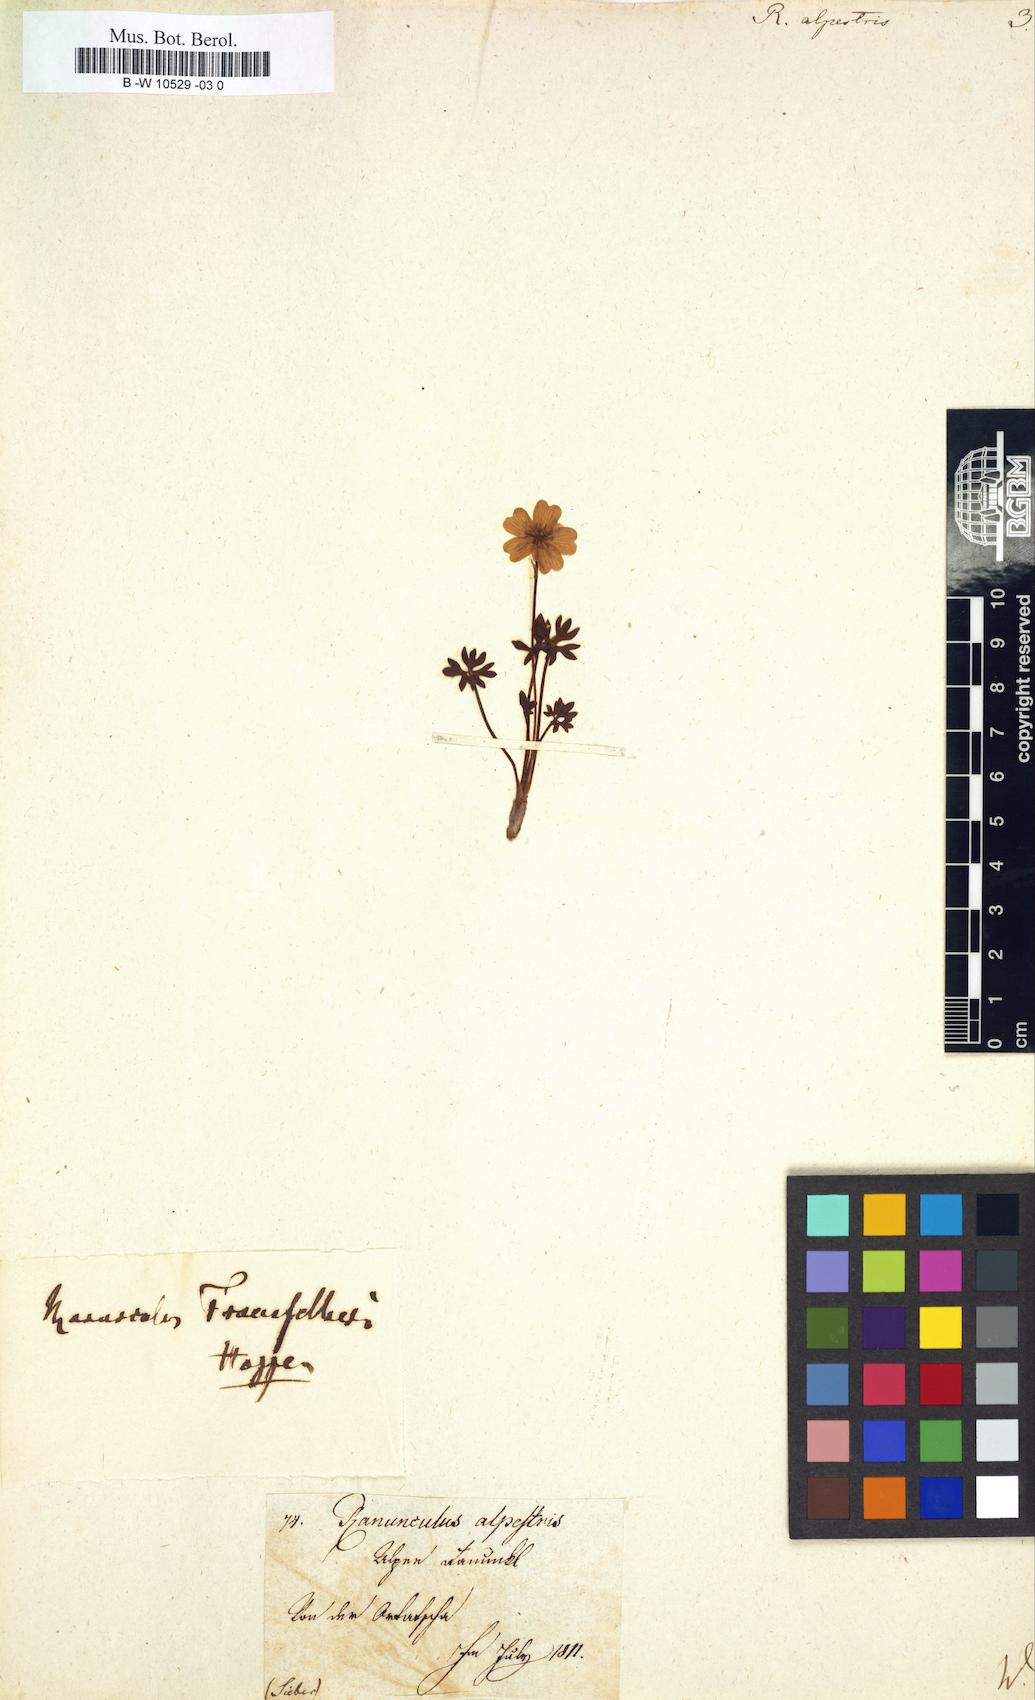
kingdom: Plantae
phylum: Tracheophyta
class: Magnoliopsida
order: Ranunculales
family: Ranunculaceae
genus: Ranunculus
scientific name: Ranunculus alpestris
